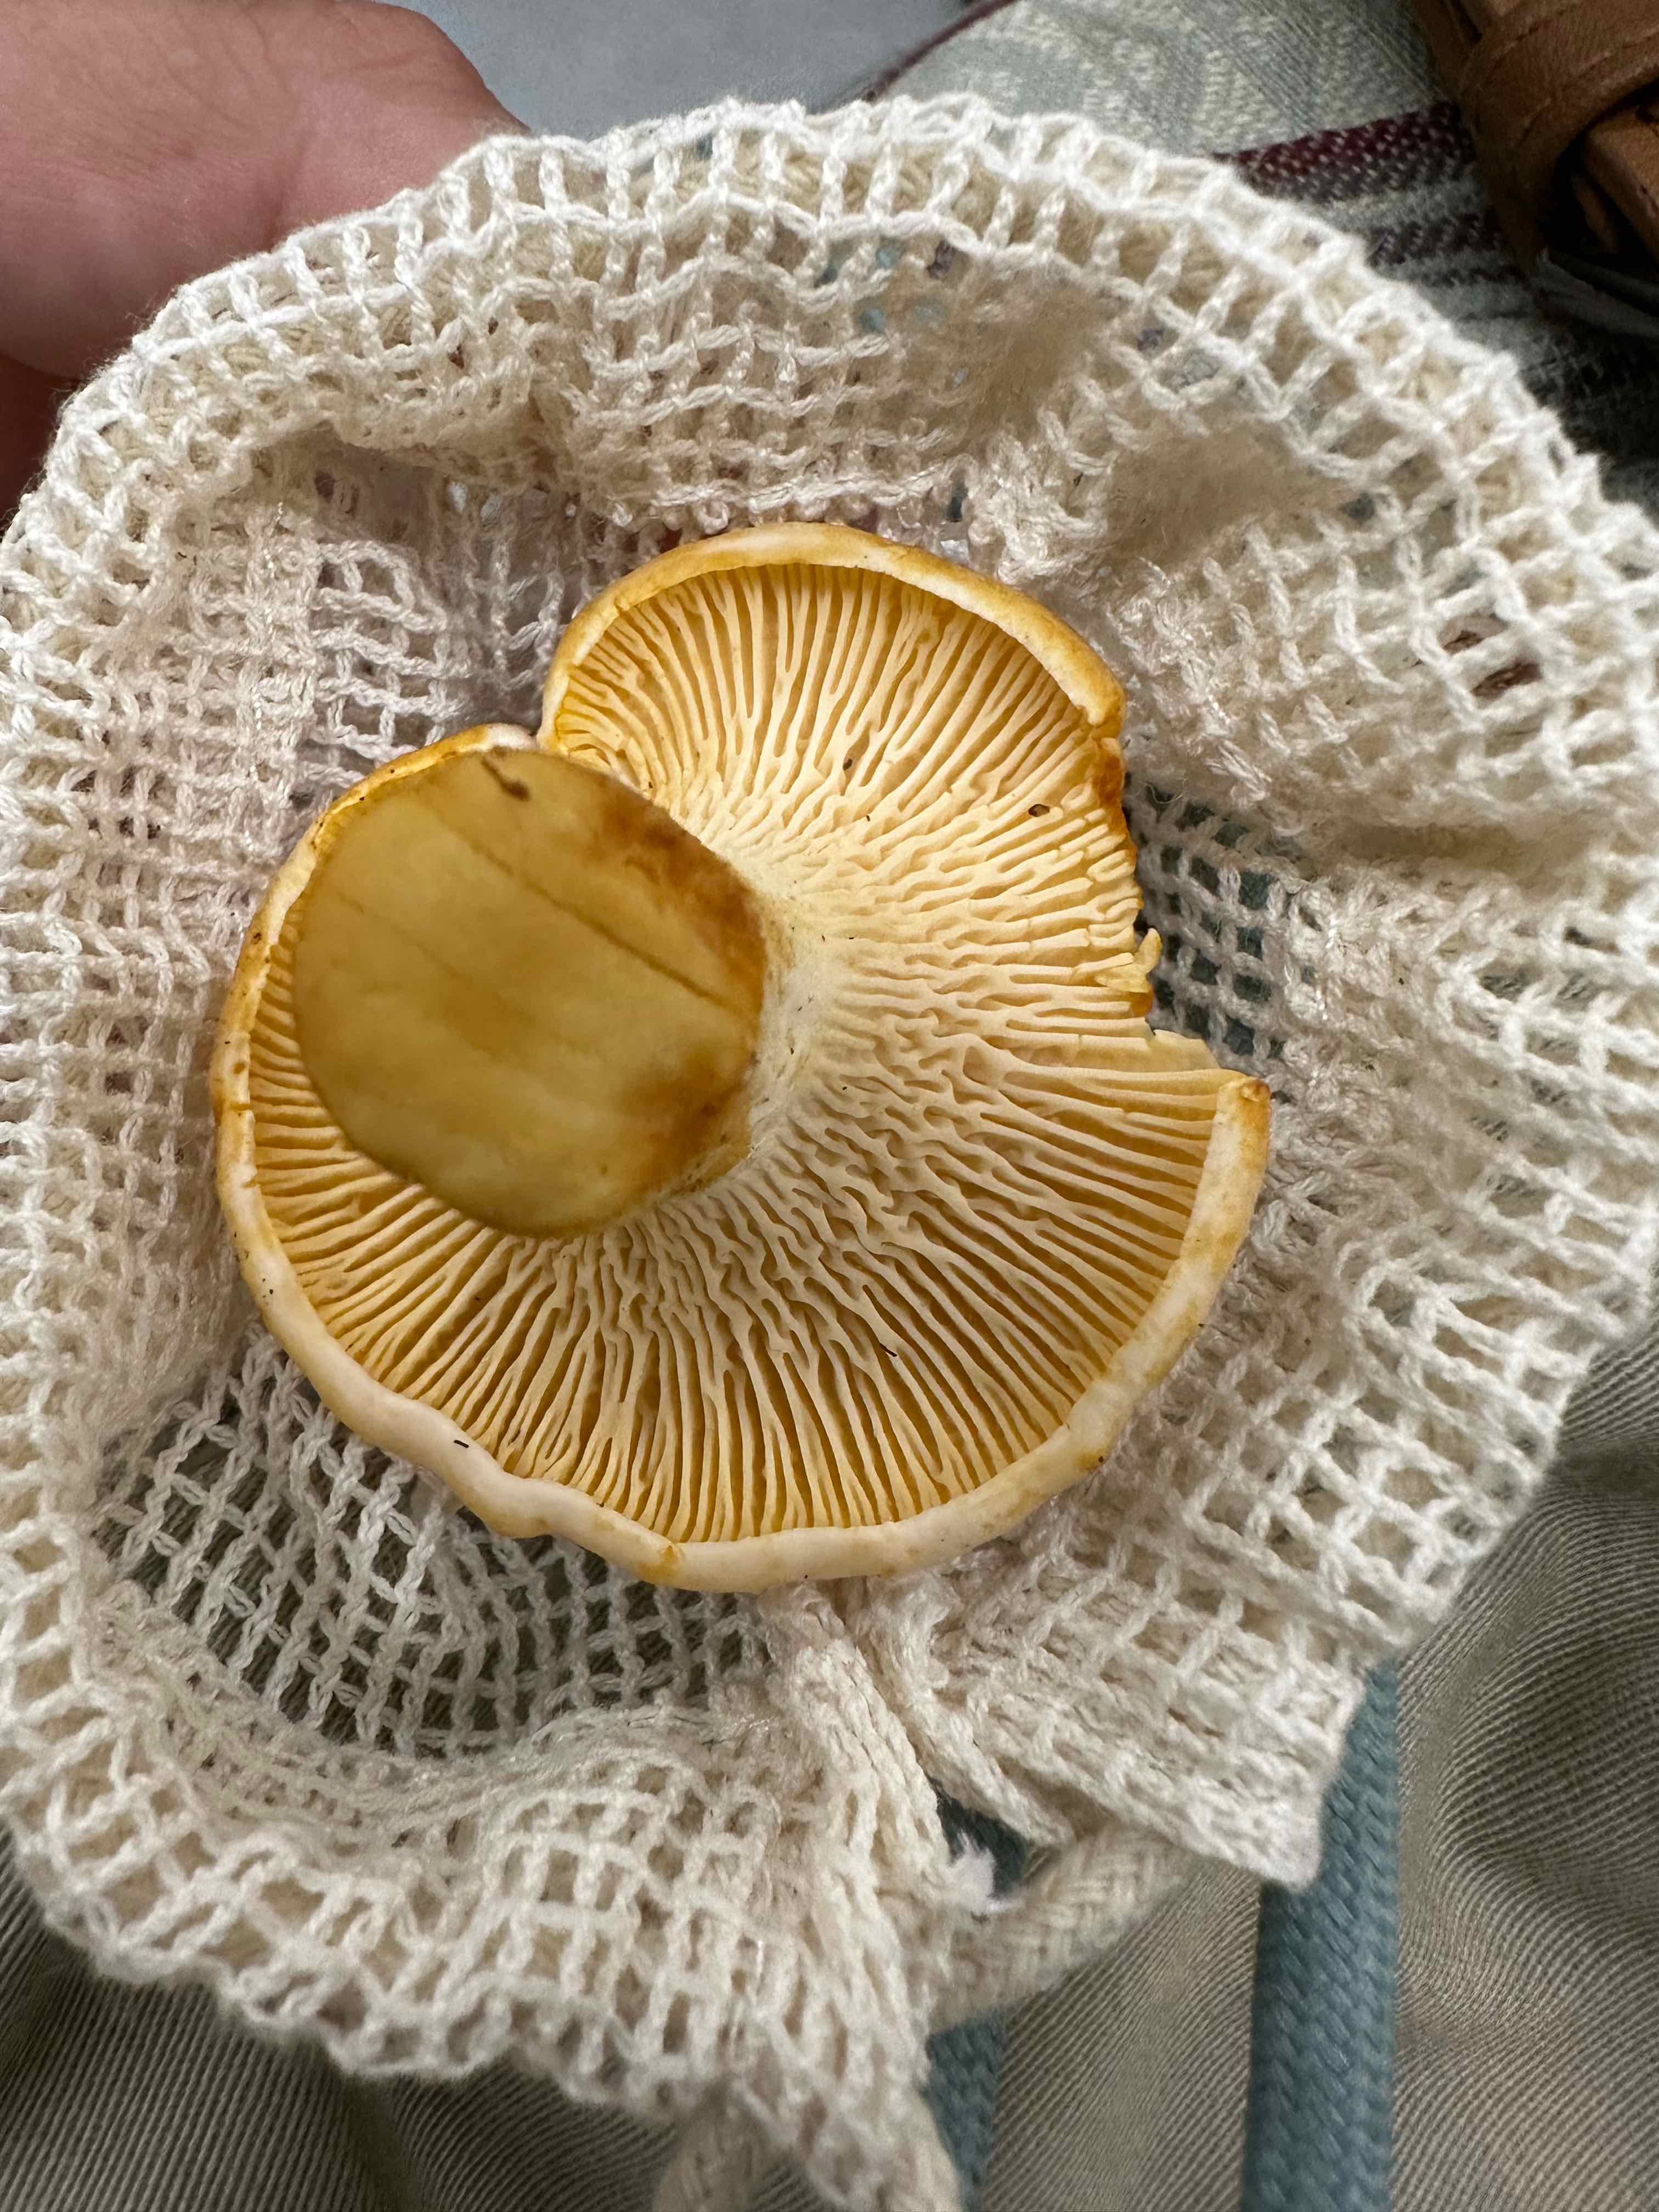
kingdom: Fungi
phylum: Basidiomycota
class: Agaricomycetes
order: Cantharellales
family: Hydnaceae
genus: Cantharellus
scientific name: Cantharellus pallens
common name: bleg kantarel
